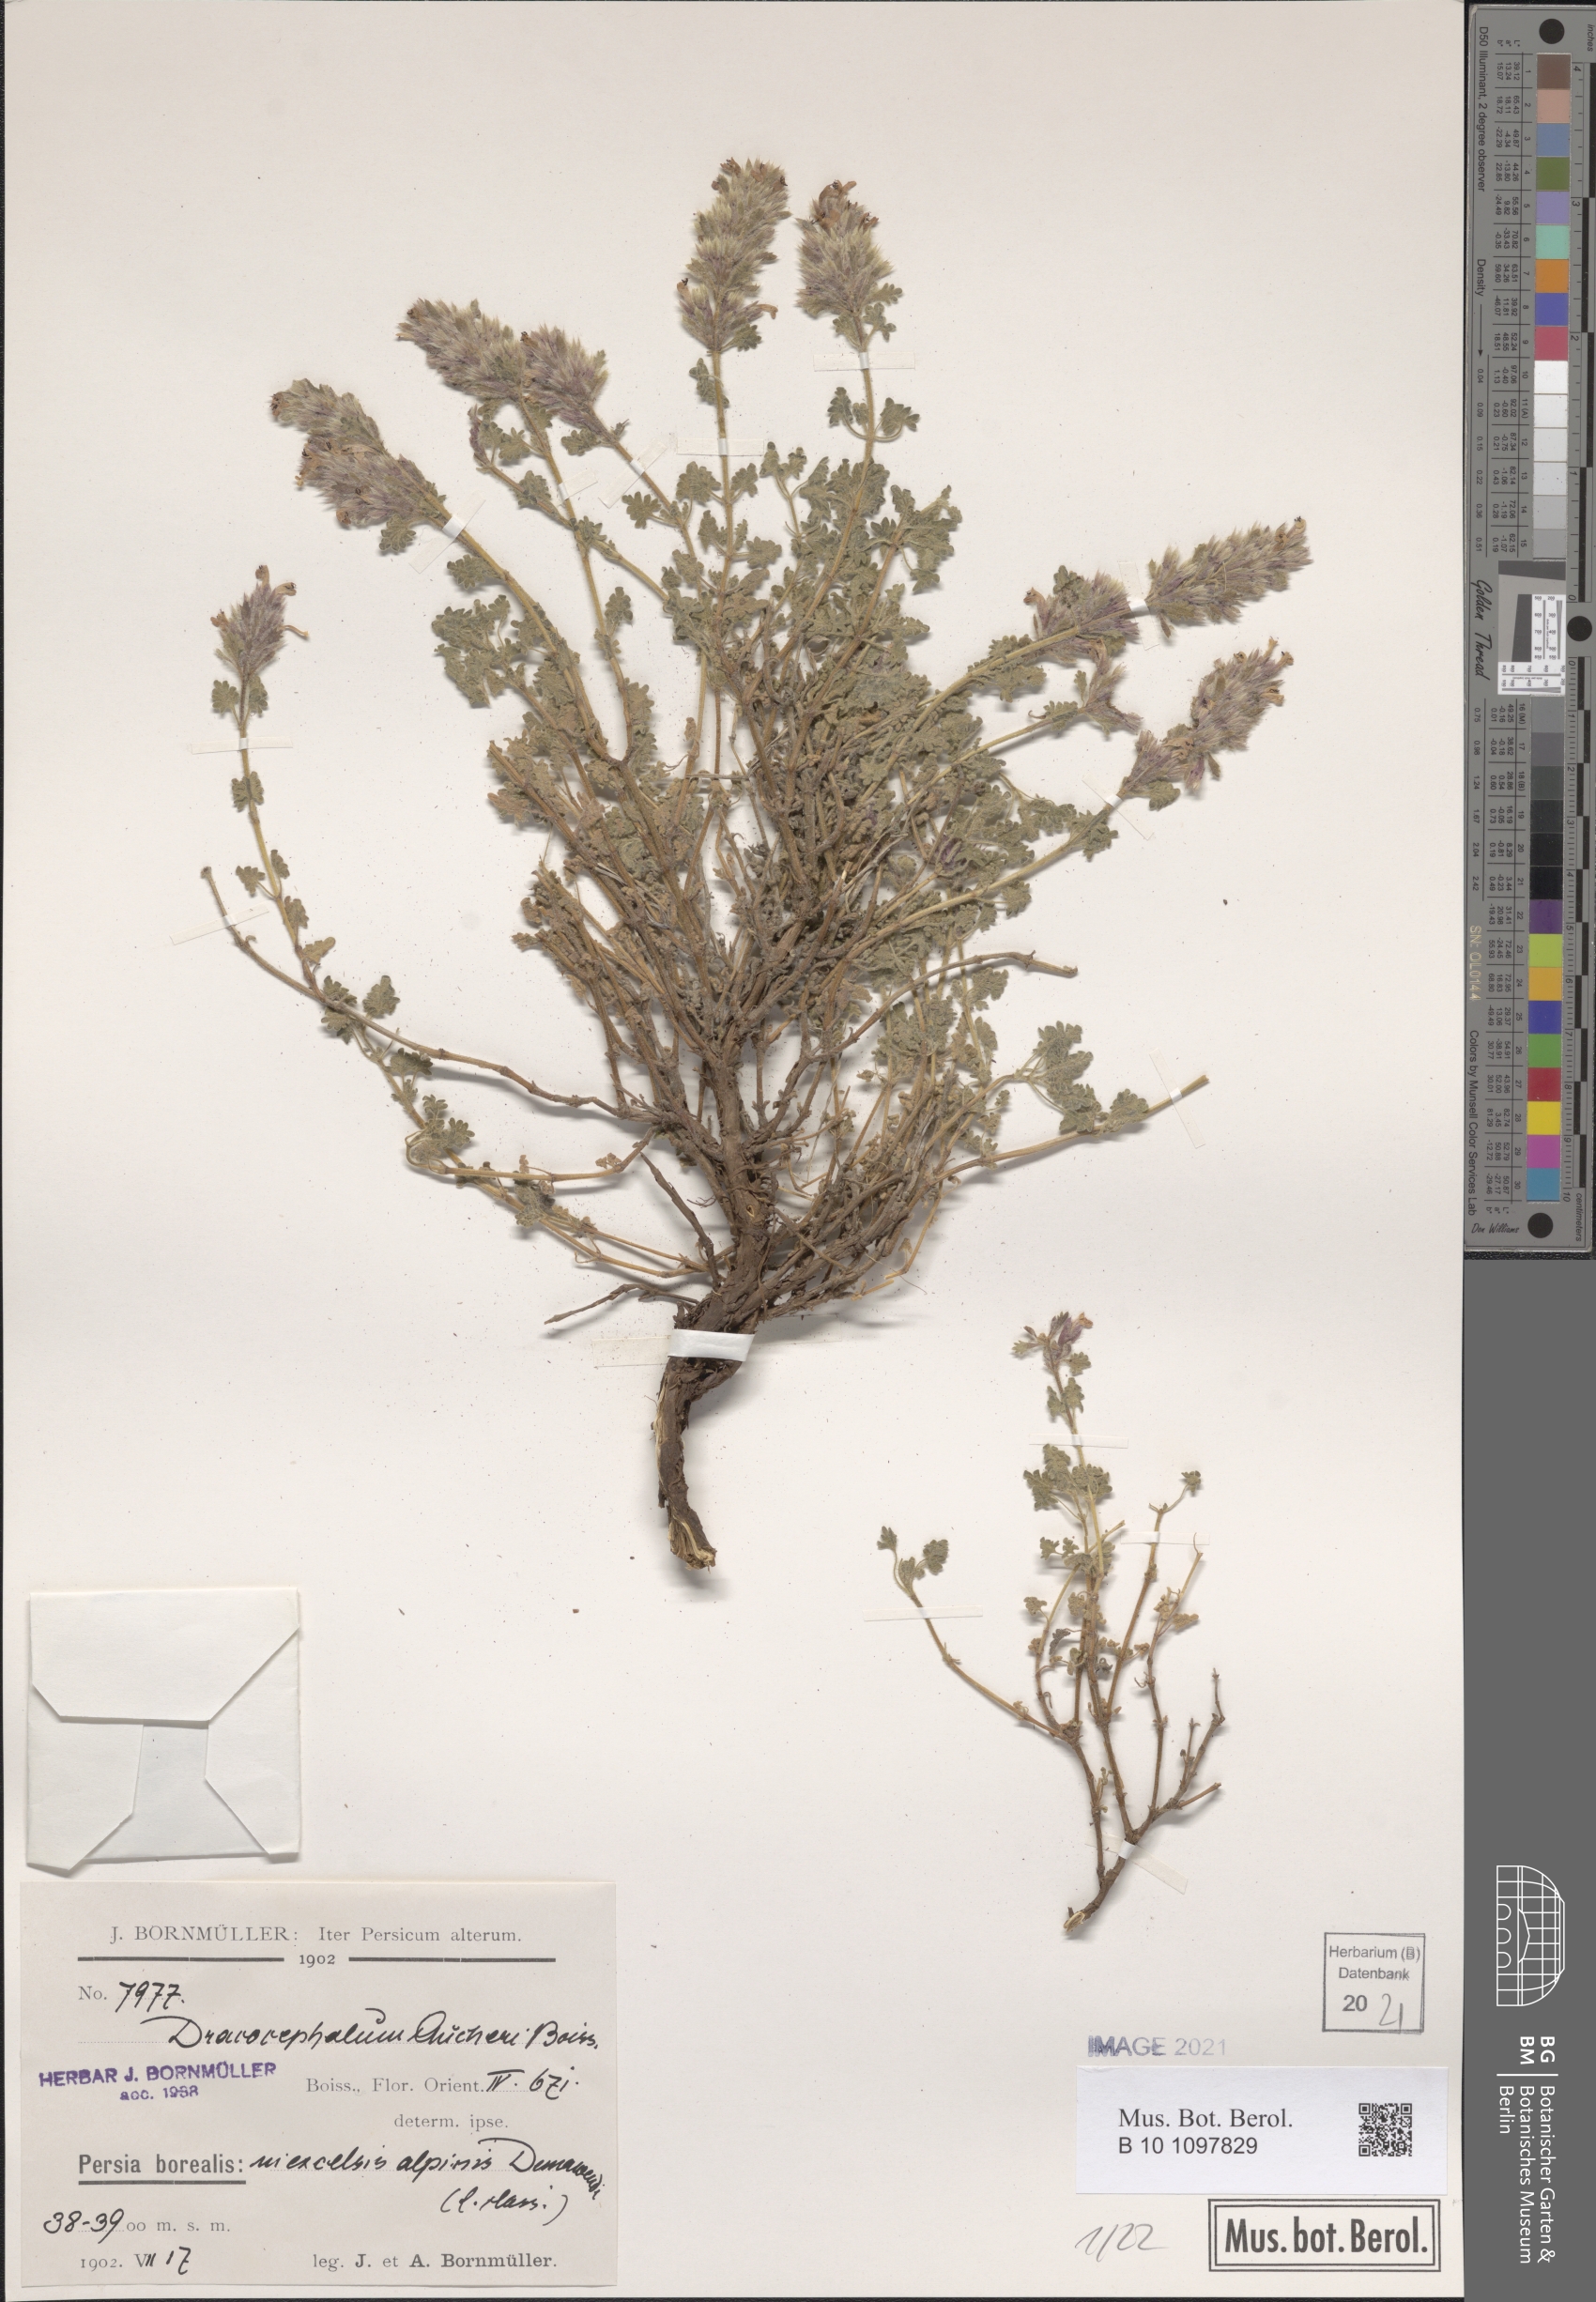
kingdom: Plantae
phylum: Tracheophyta
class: Magnoliopsida
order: Lamiales
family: Lamiaceae
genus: Dracocephalum
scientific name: Dracocephalum aucheri
